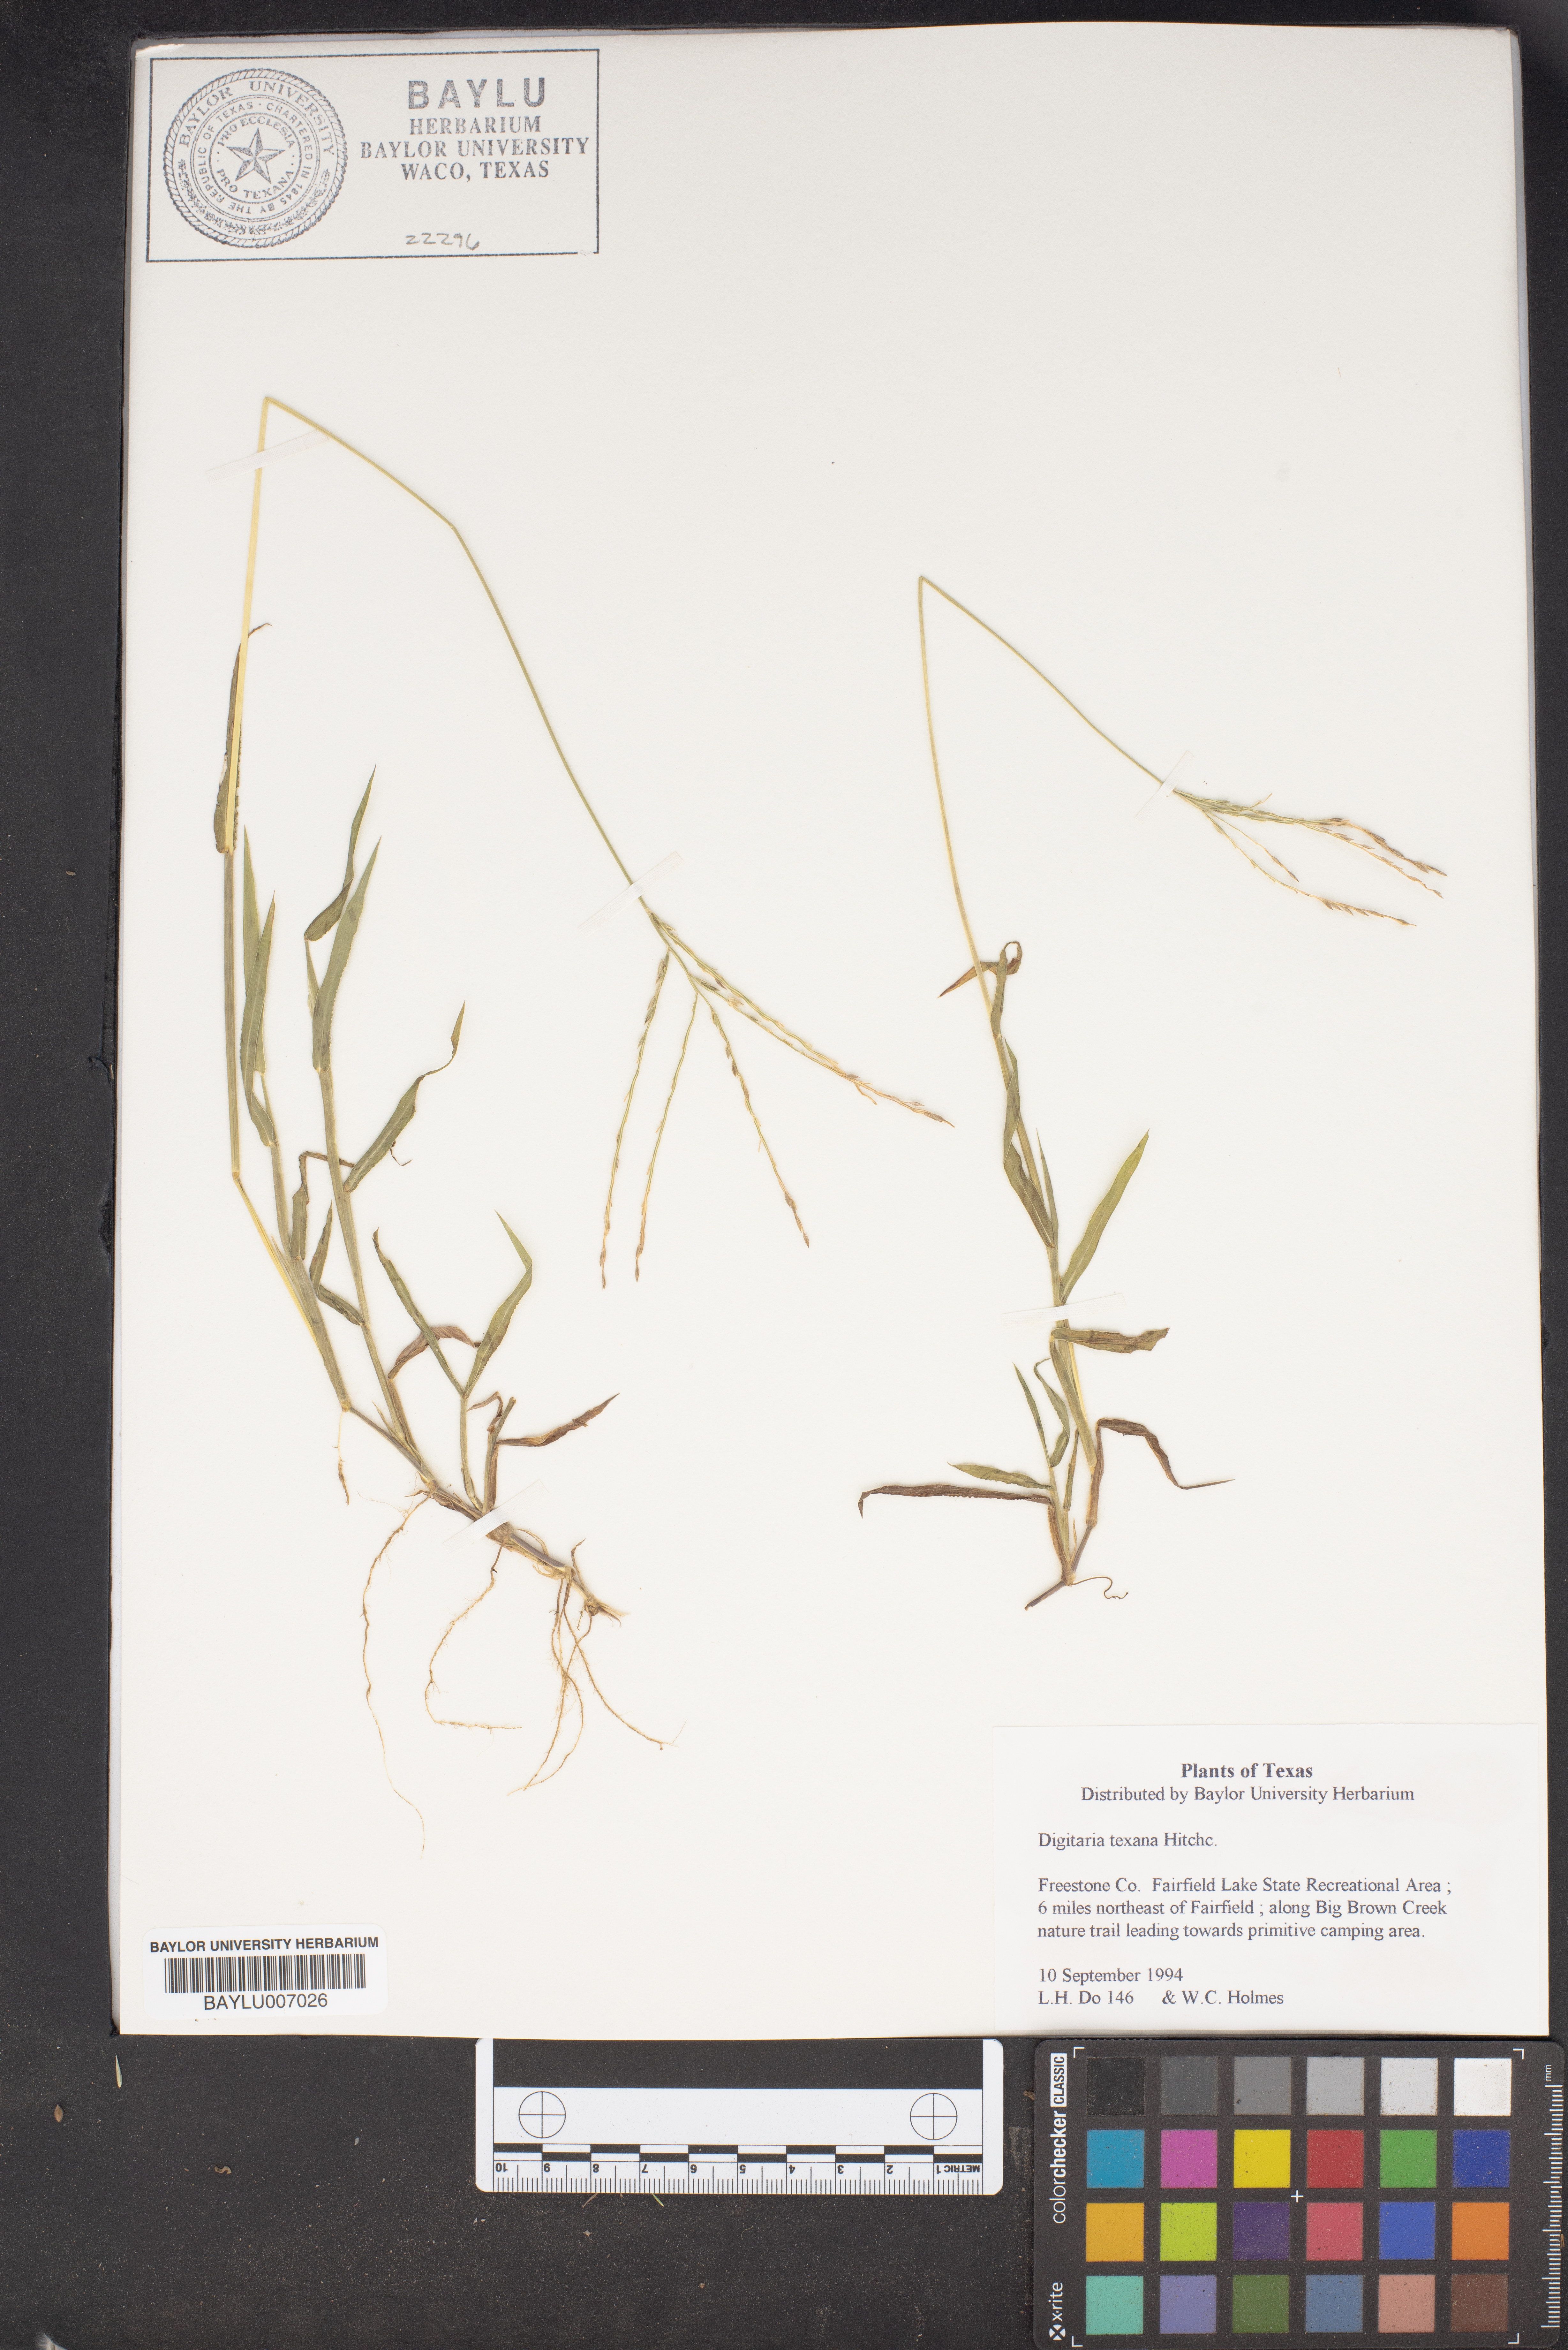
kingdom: Plantae
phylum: Tracheophyta
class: Liliopsida
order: Poales
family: Poaceae
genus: Digitaria
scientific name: Digitaria texana
